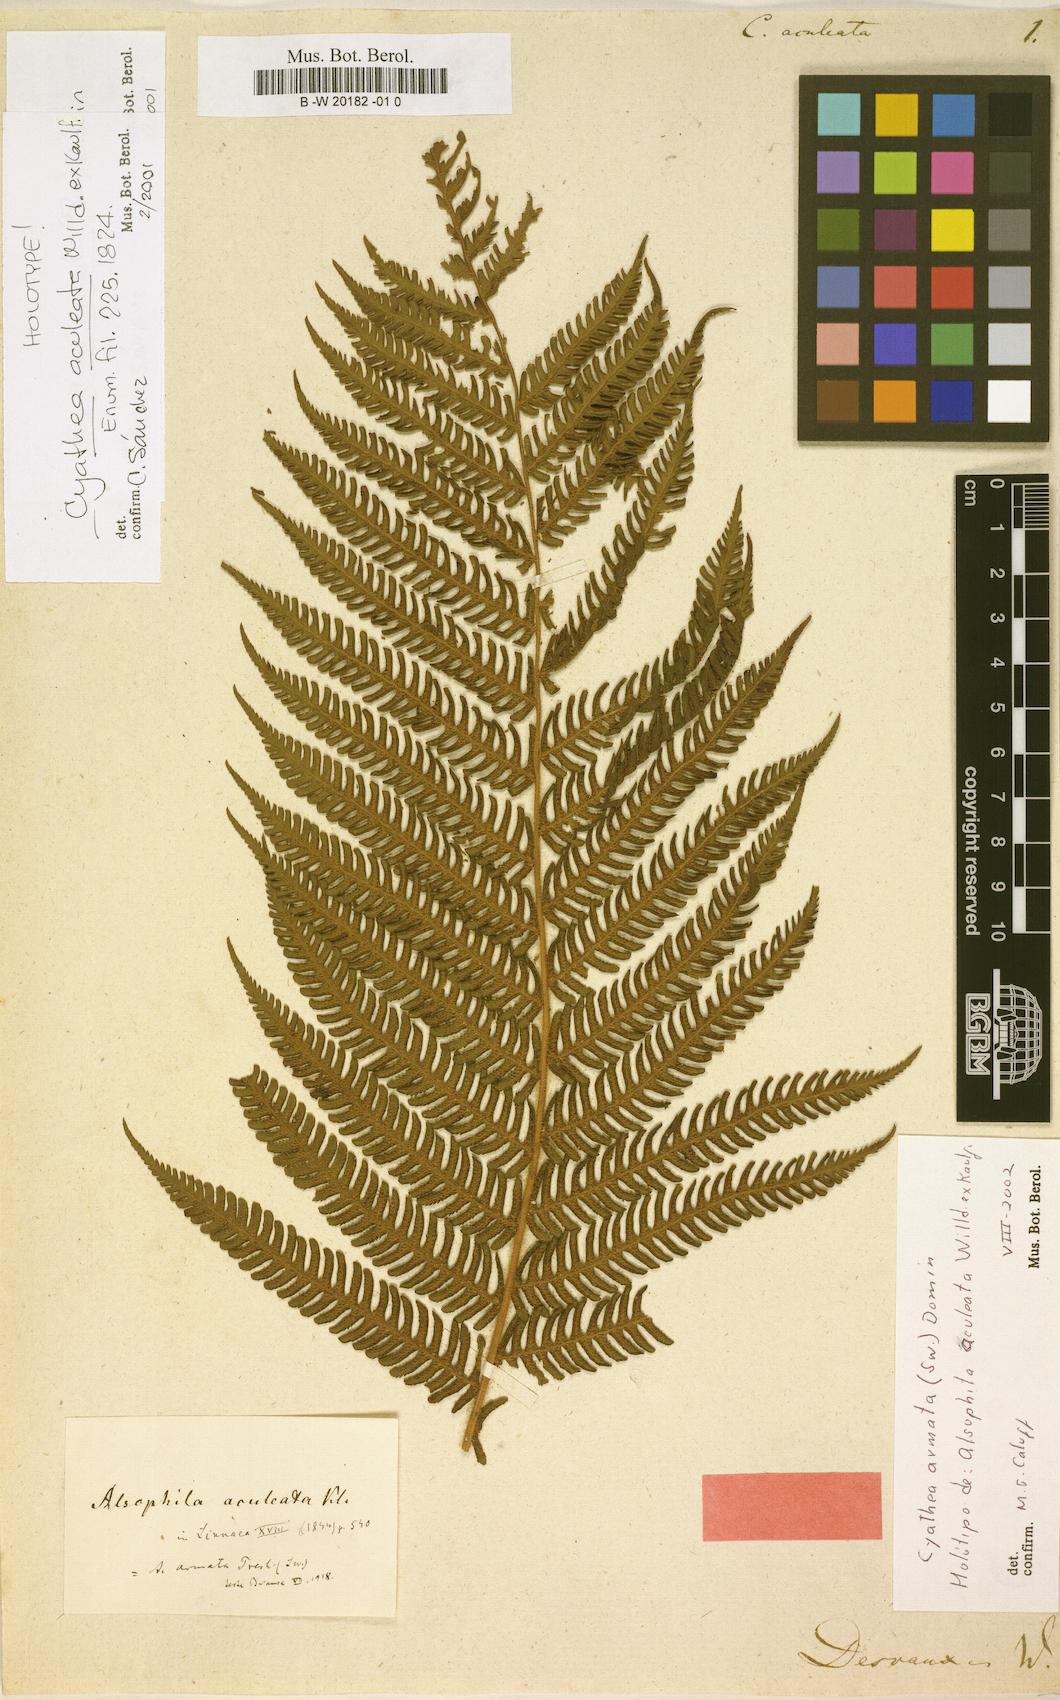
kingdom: Plantae
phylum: Tracheophyta
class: Polypodiopsida
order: Cyatheales
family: Cyatheaceae
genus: Cyathea
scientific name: Cyathea aculeata
